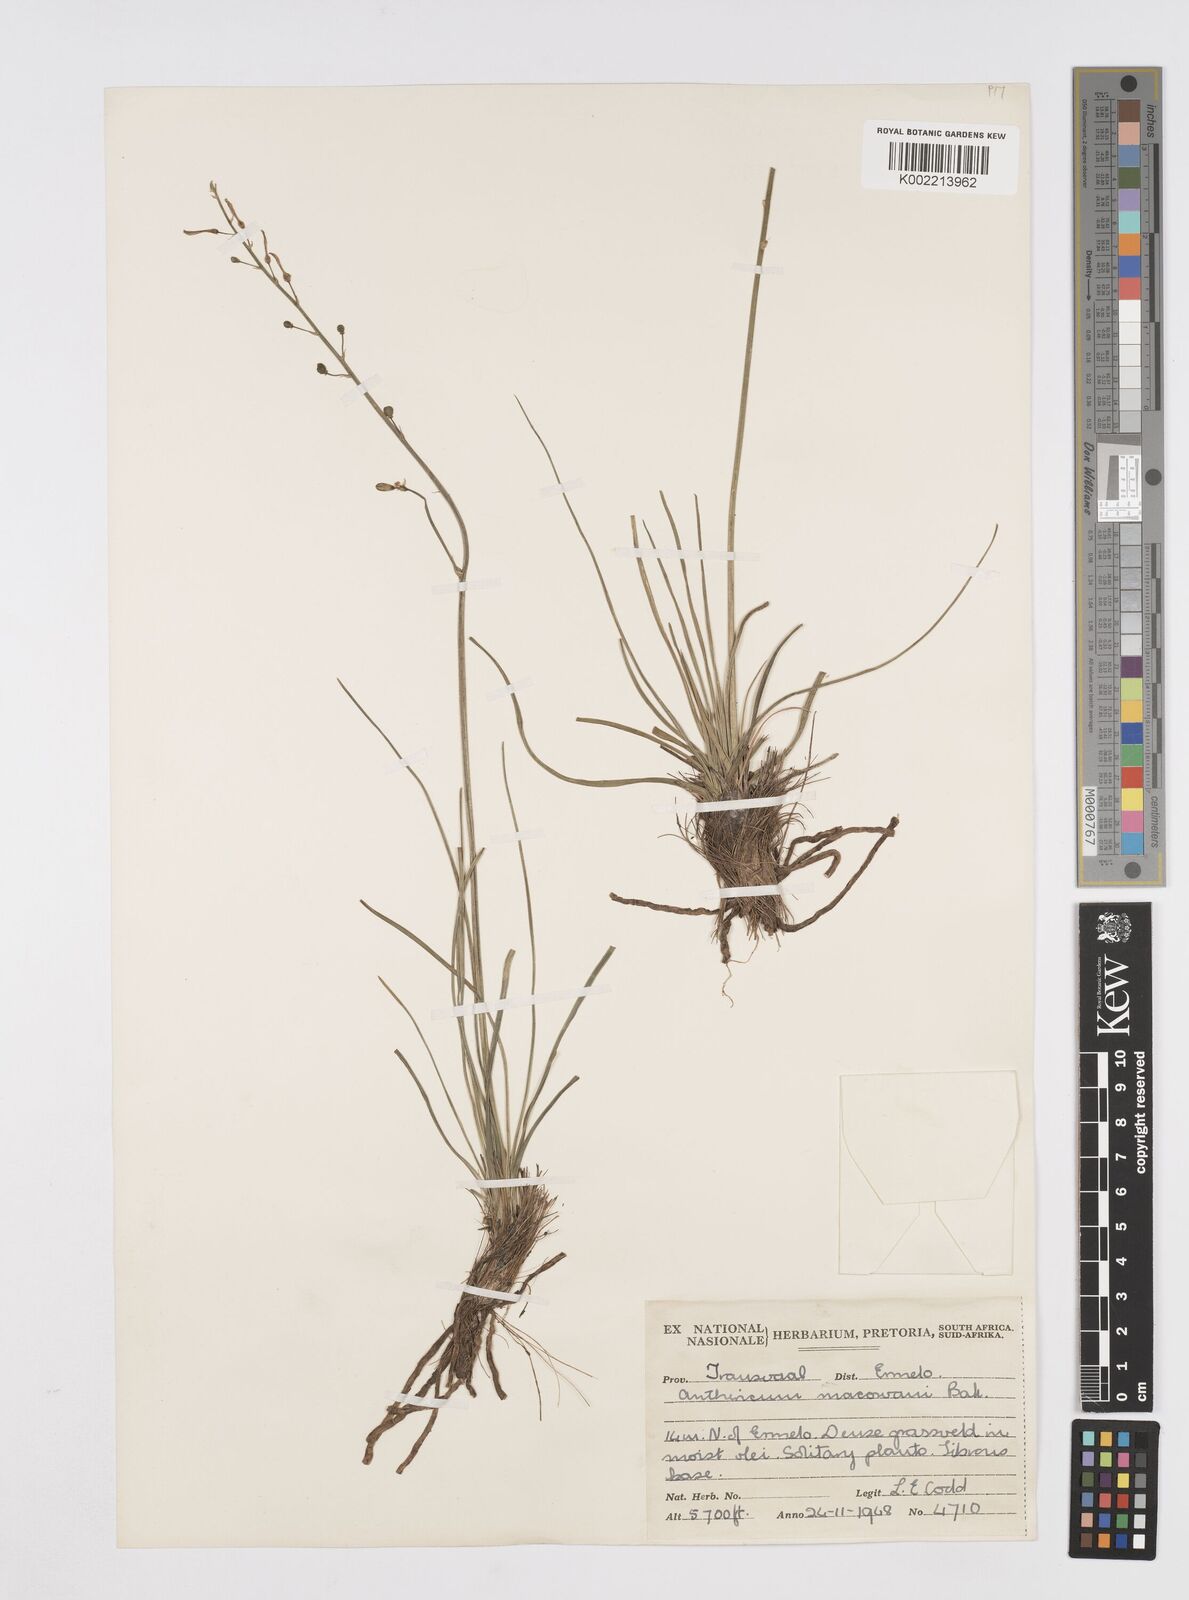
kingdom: Plantae
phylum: Tracheophyta
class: Liliopsida
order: Asparagales
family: Asphodelaceae
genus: Trachyandra
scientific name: Trachyandra asperata
